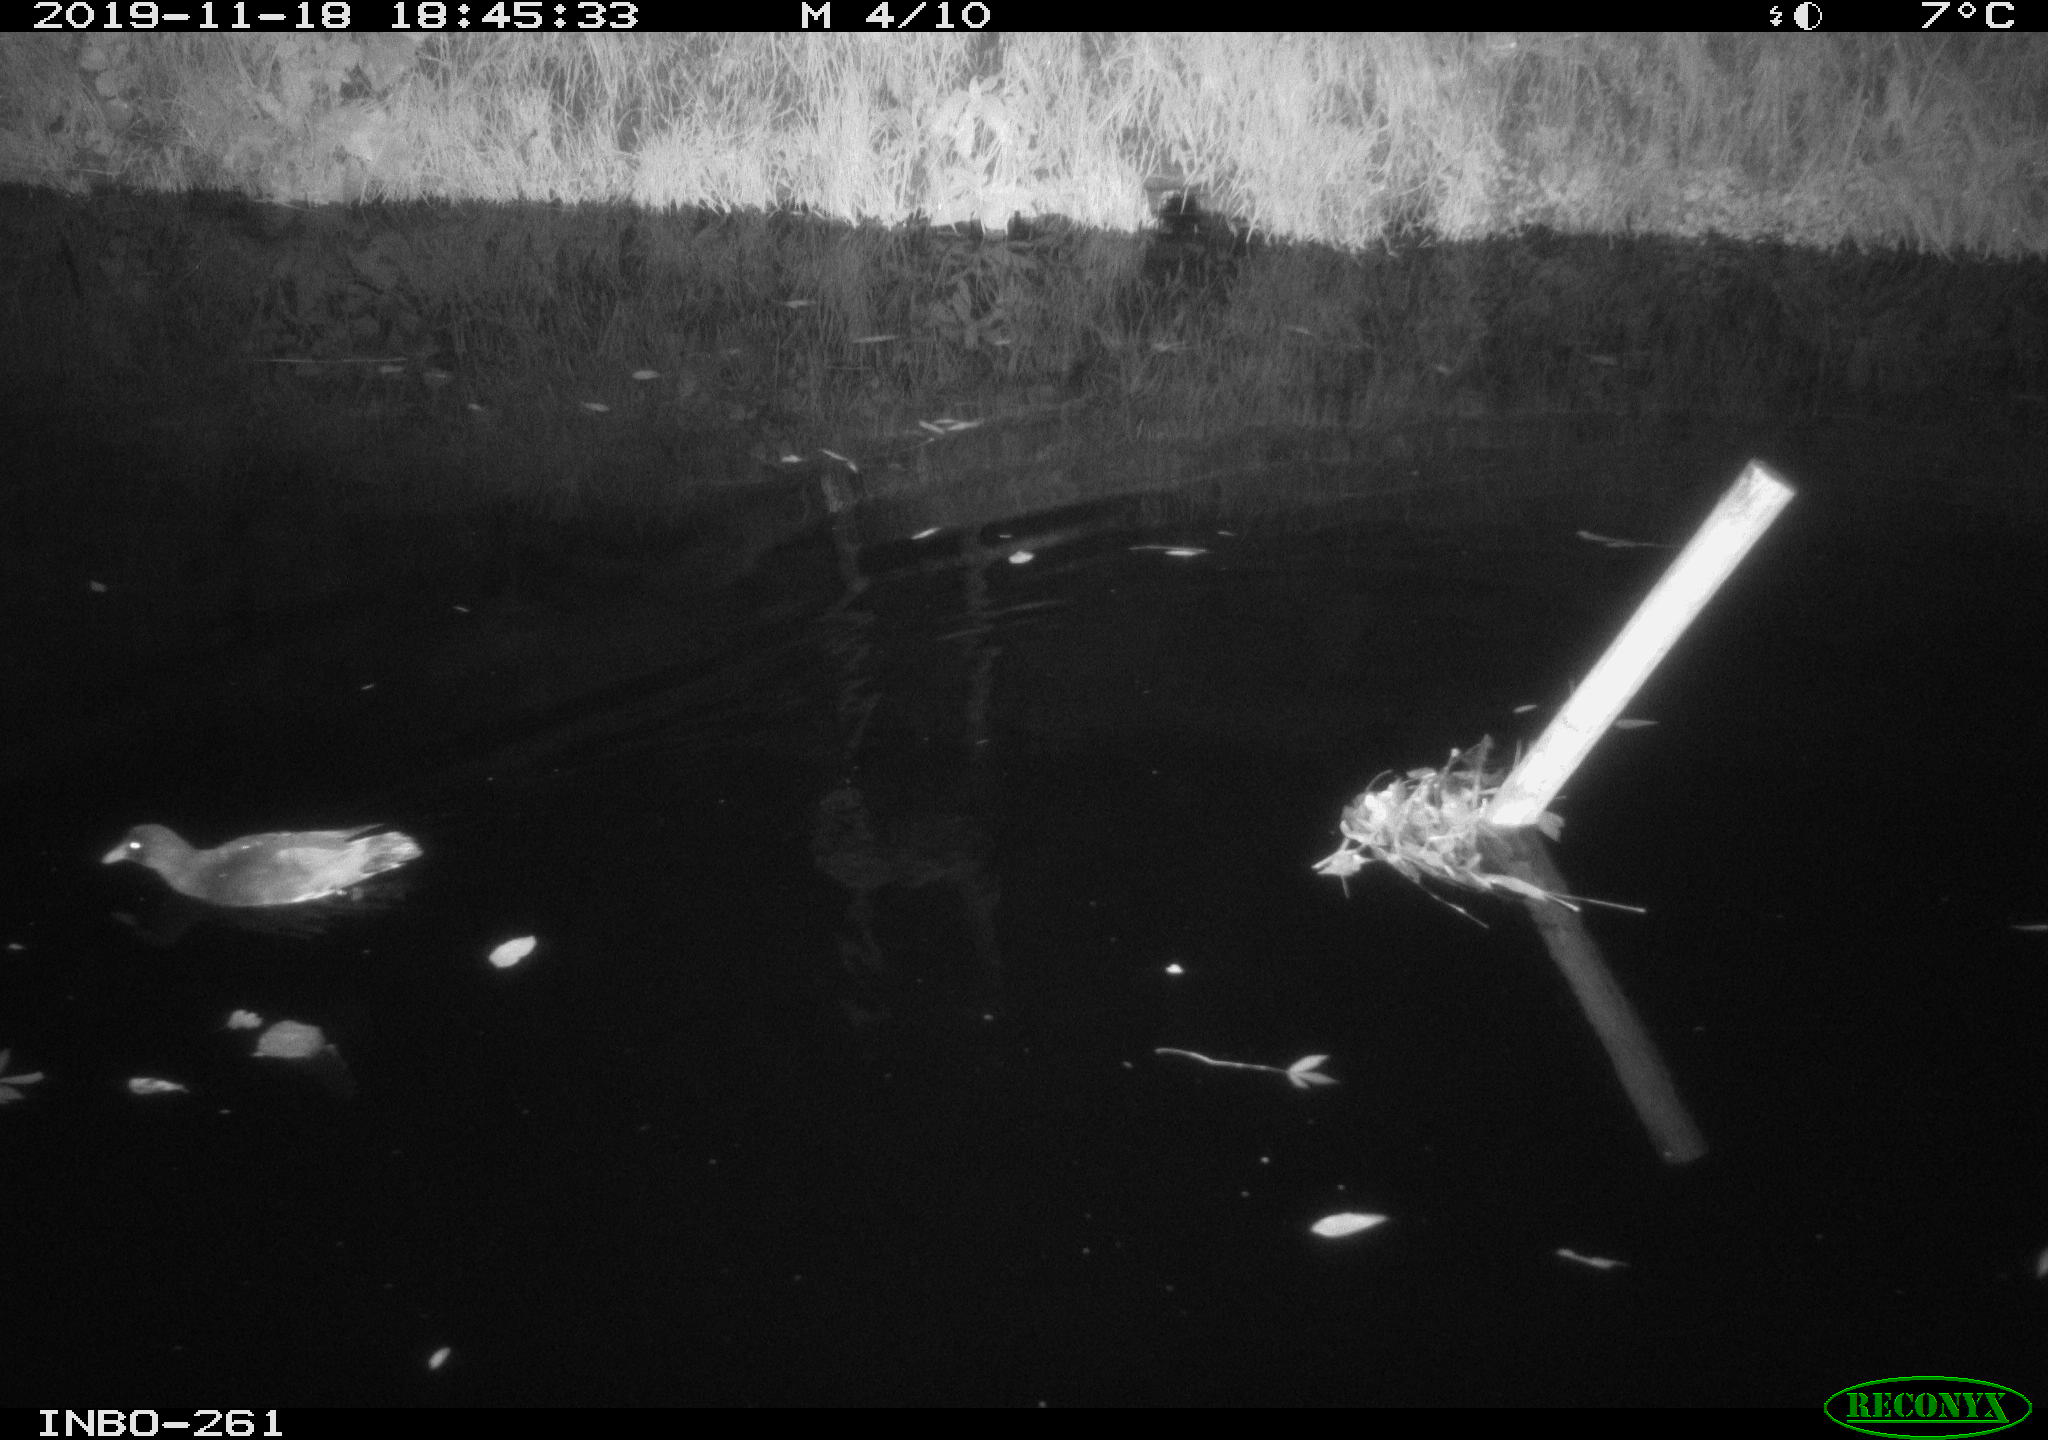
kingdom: Animalia
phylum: Chordata
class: Aves
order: Gruiformes
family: Rallidae
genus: Gallinula
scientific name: Gallinula chloropus
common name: Common moorhen
